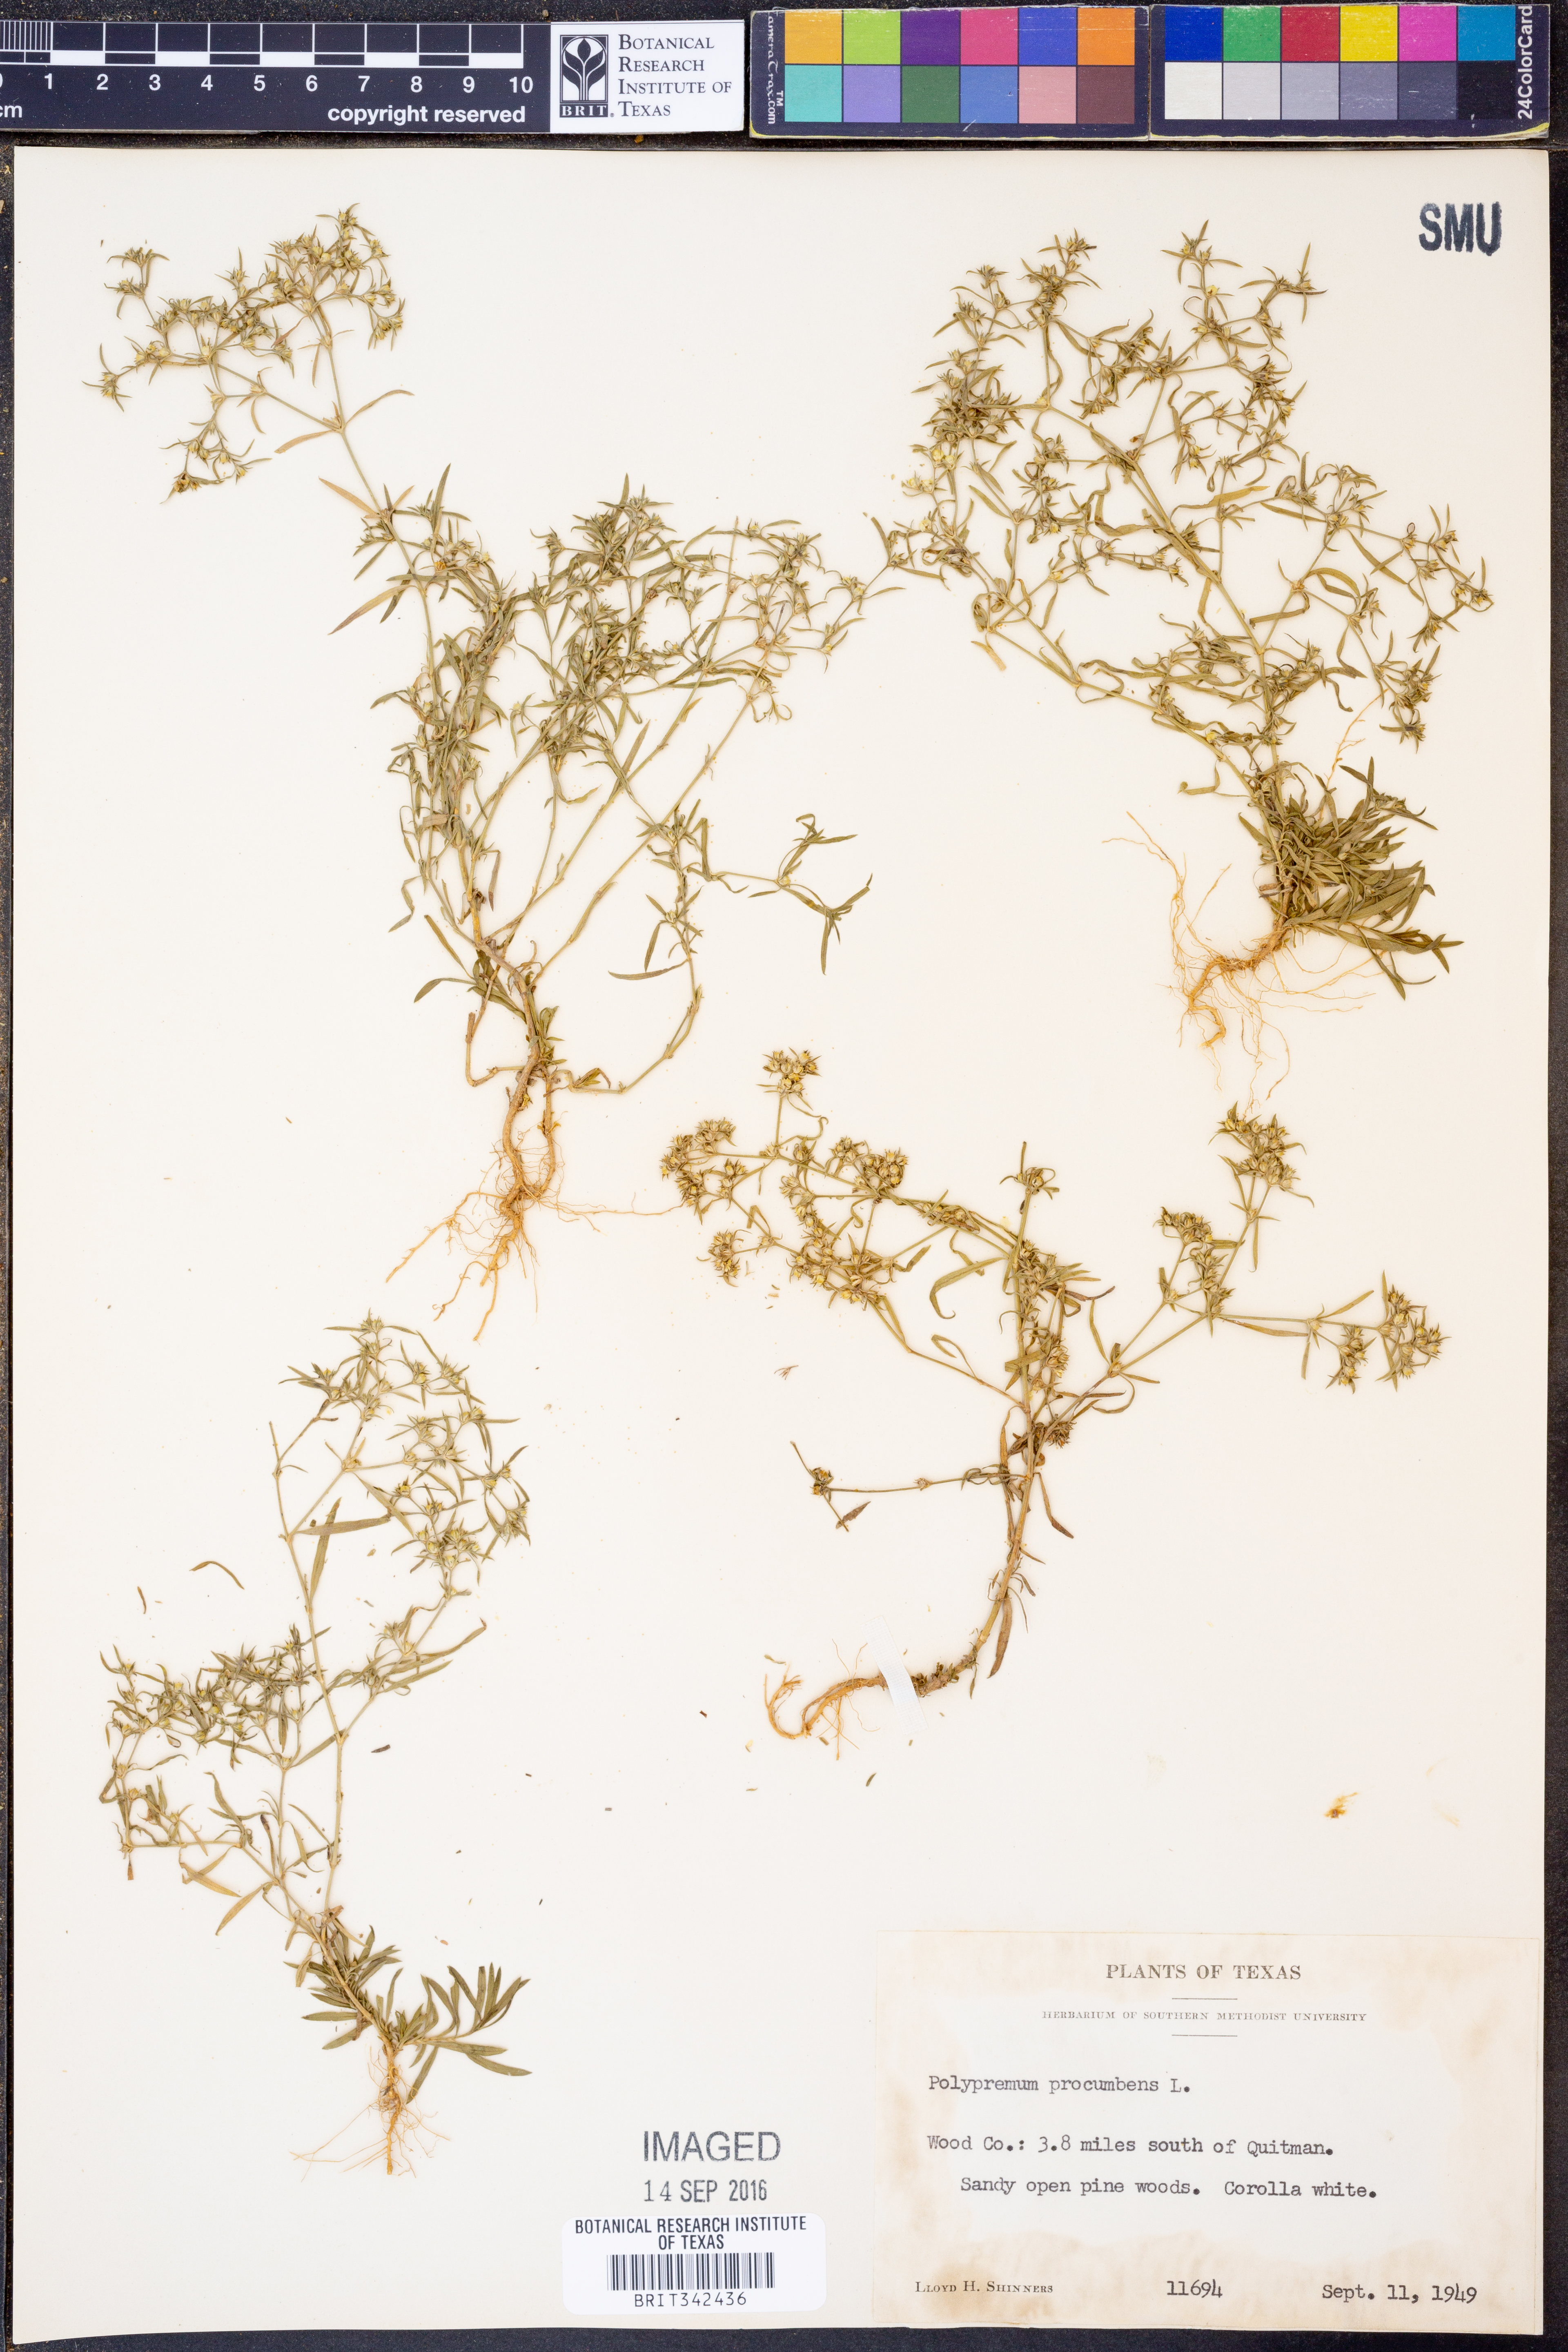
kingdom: Plantae
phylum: Tracheophyta
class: Magnoliopsida
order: Lamiales
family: Tetrachondraceae
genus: Polypremum
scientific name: Polypremum procumbens
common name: Juniper-leaf
